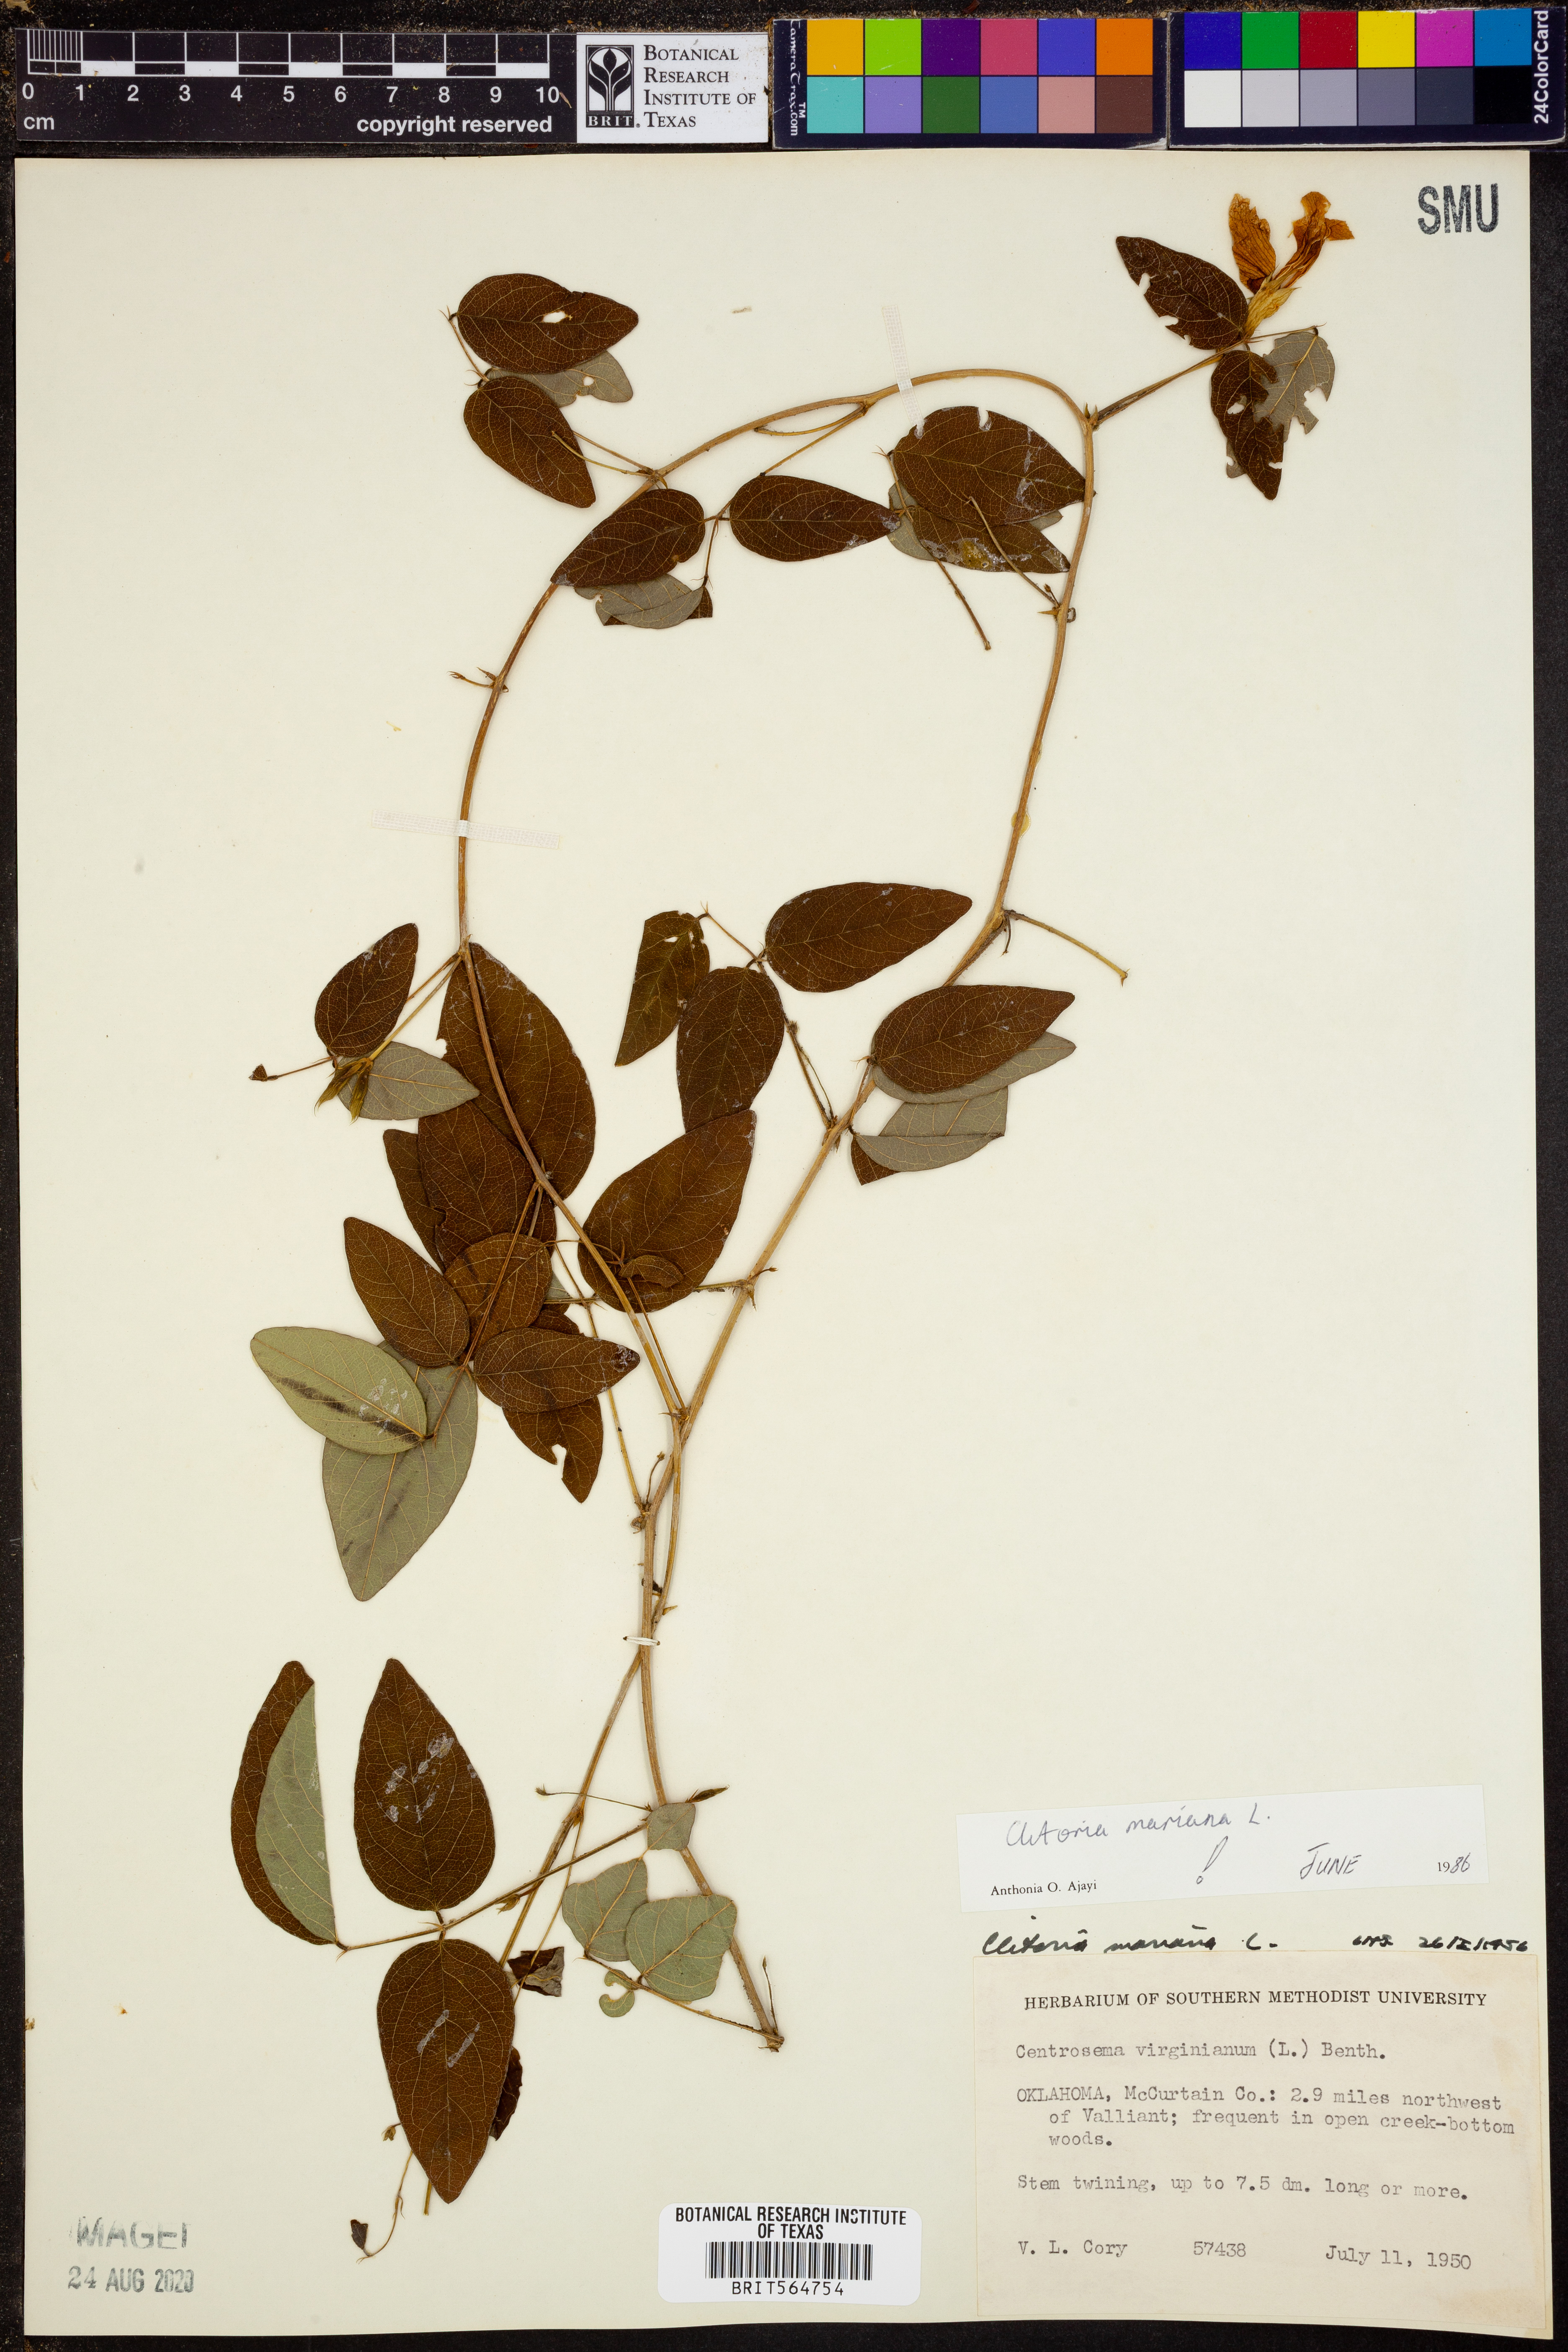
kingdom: Plantae
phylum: Tracheophyta
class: Magnoliopsida
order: Fabales
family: Fabaceae
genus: Clitoria
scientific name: Clitoria mariana
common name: Butterfly-pea
